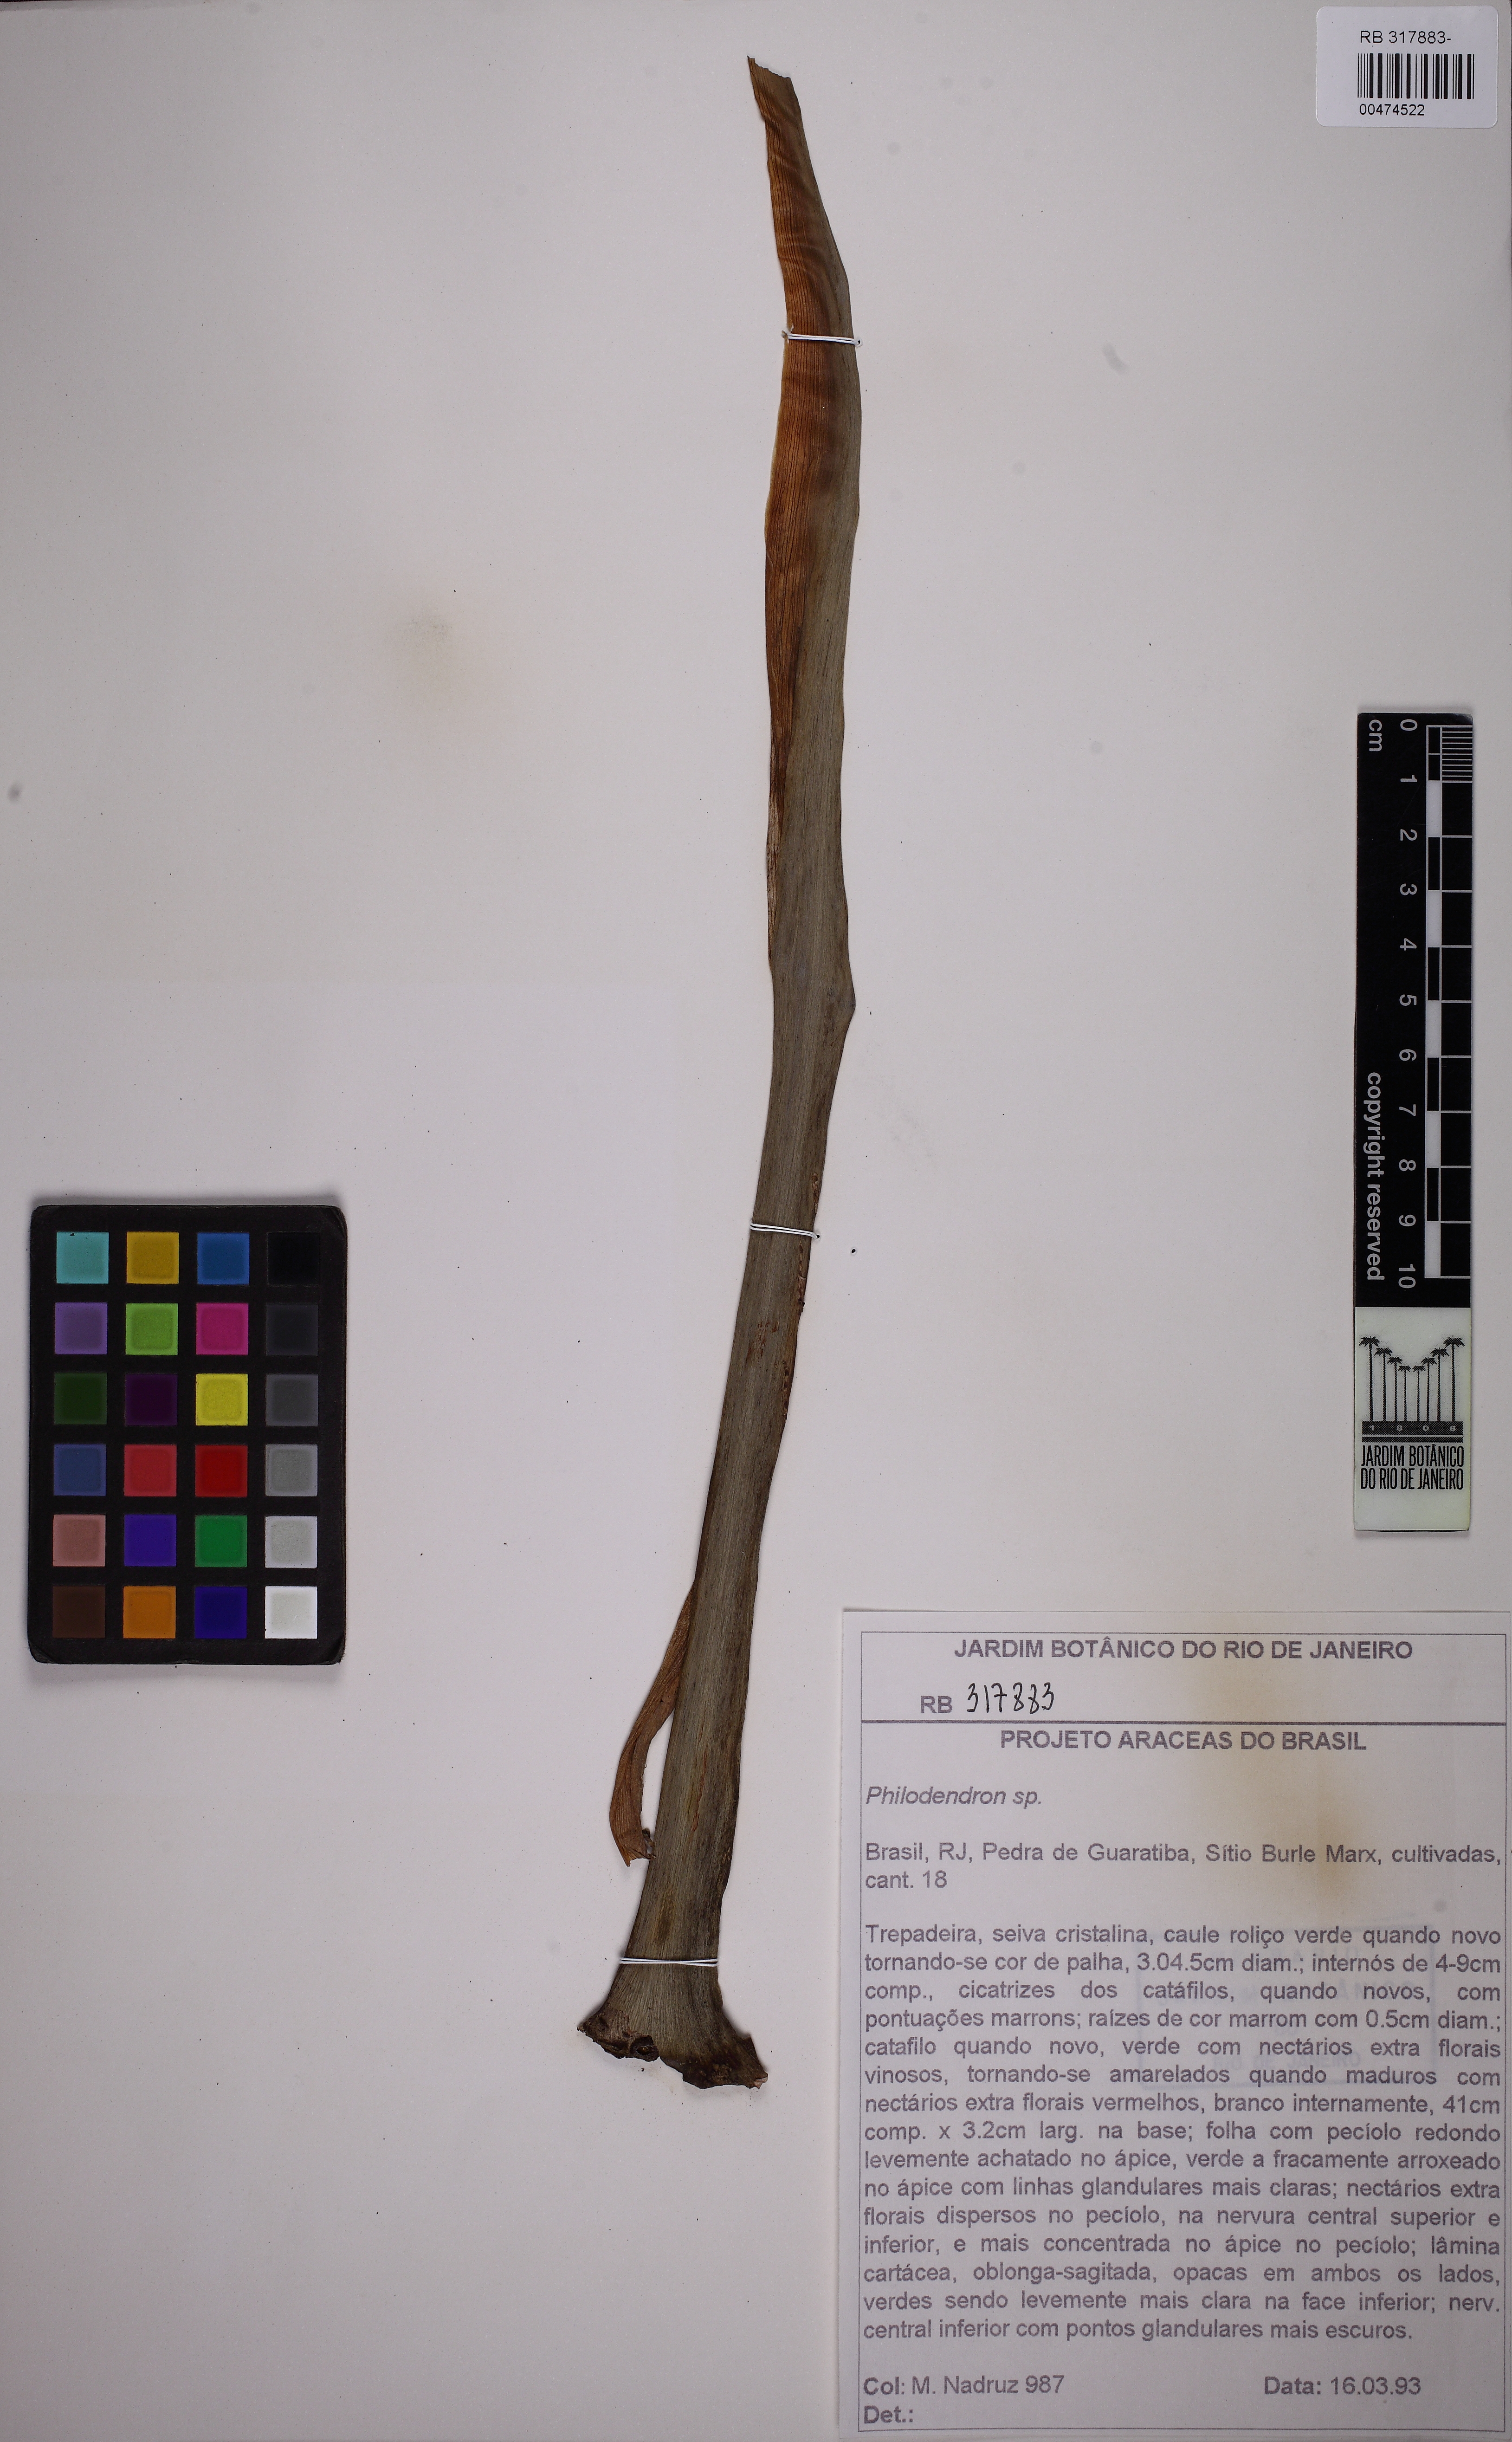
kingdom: Plantae
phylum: Tracheophyta
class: Liliopsida
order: Alismatales
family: Araceae
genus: Philodendron
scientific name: Philodendron
